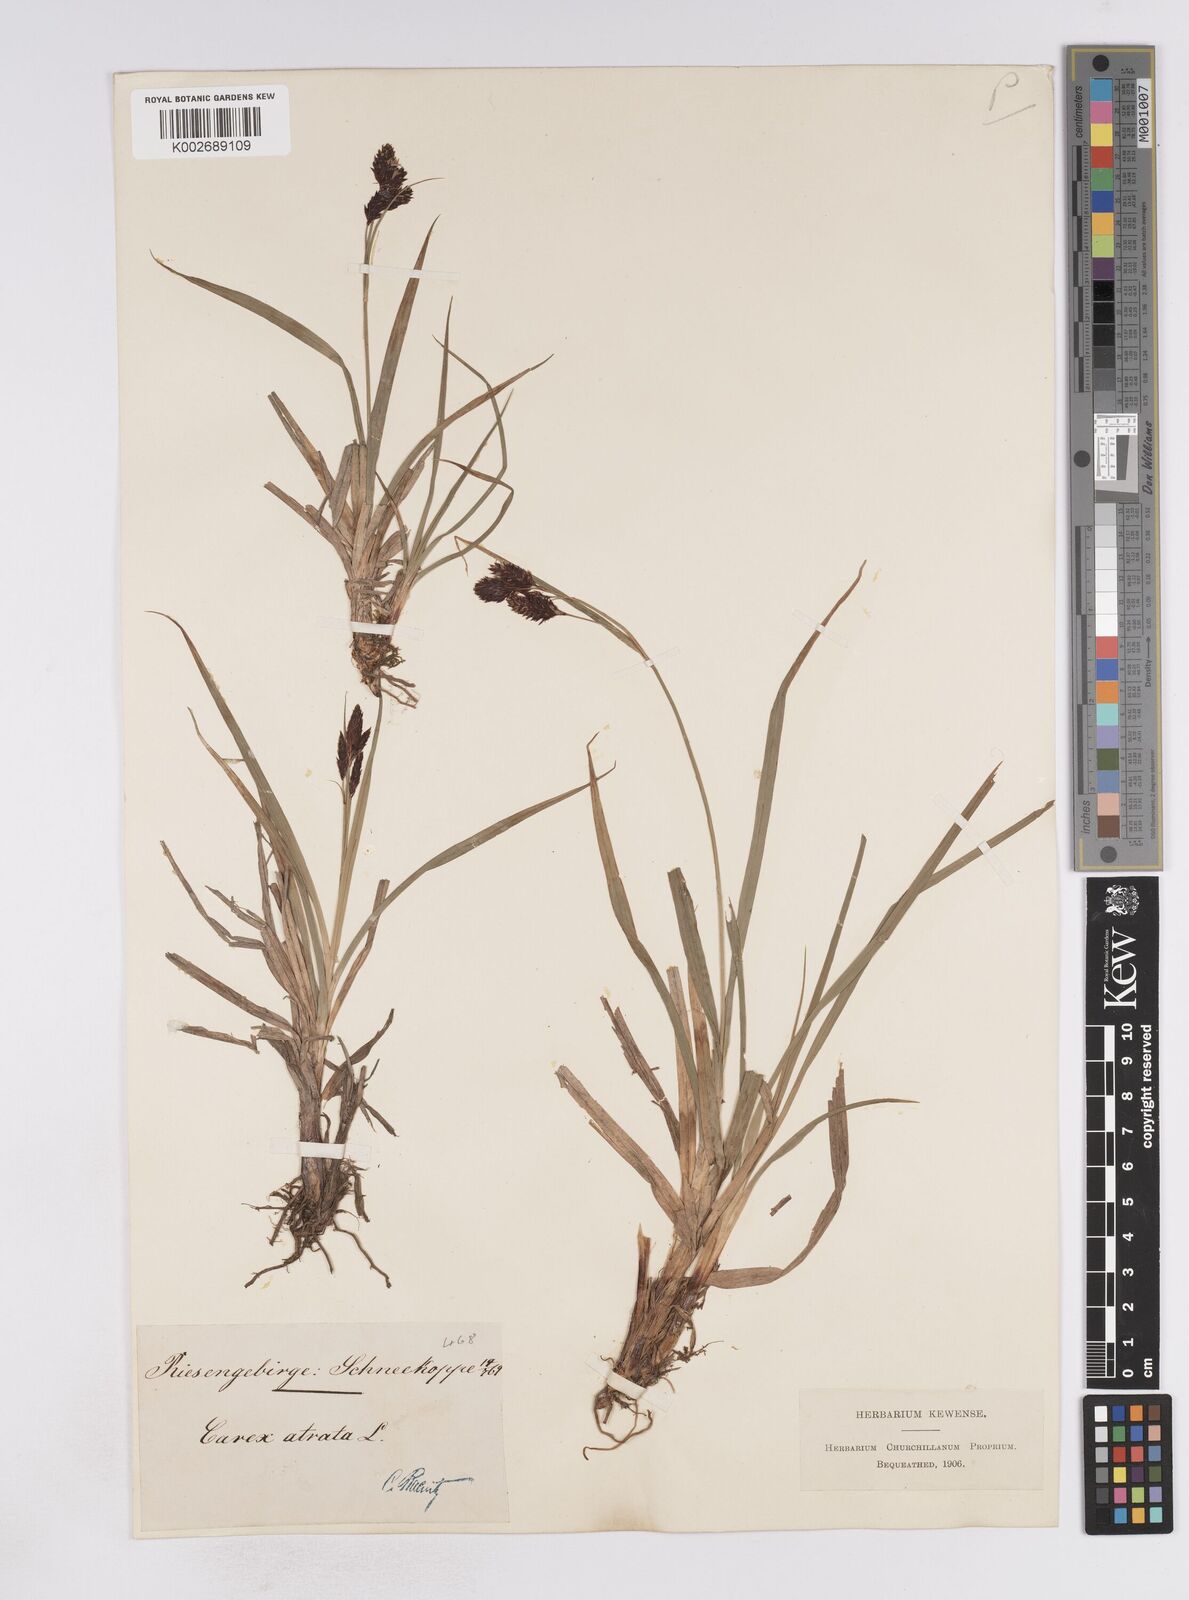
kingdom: Plantae
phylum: Tracheophyta
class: Liliopsida
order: Poales
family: Cyperaceae
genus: Carex
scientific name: Carex atrata
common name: Black alpine sedge
